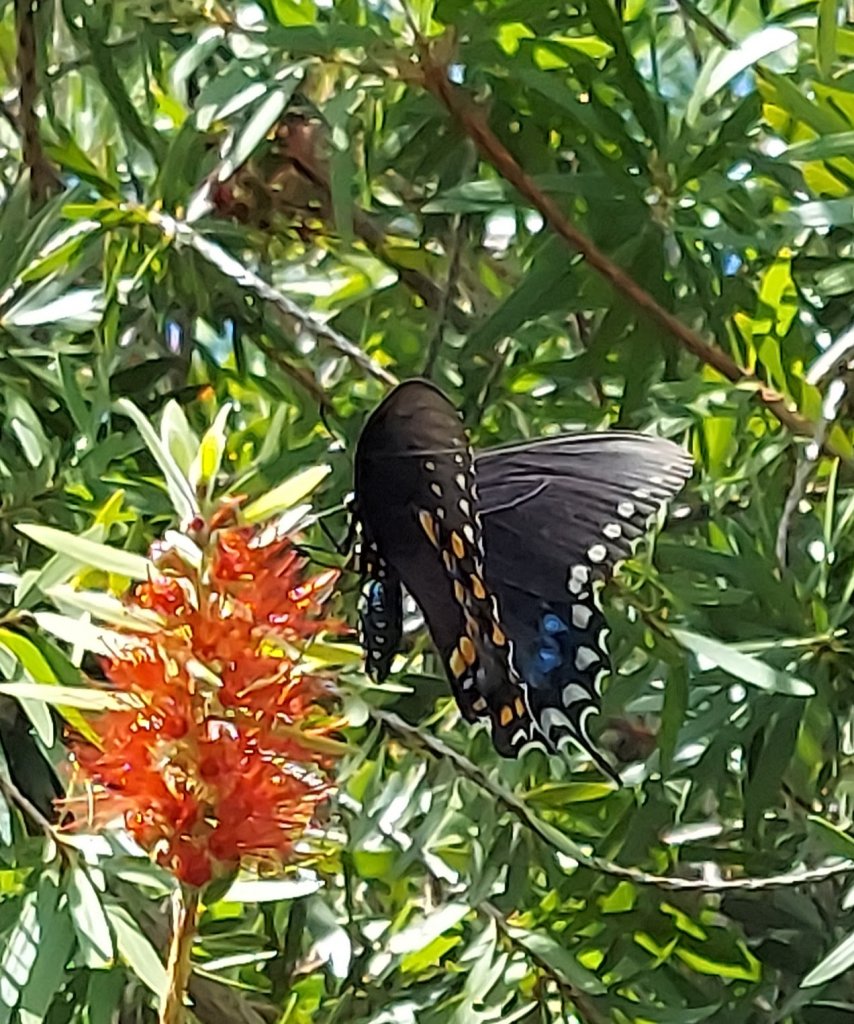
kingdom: Animalia
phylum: Arthropoda
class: Insecta
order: Lepidoptera
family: Papilionidae
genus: Pterourus
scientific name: Pterourus troilus
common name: Spicebush Swallowtail
